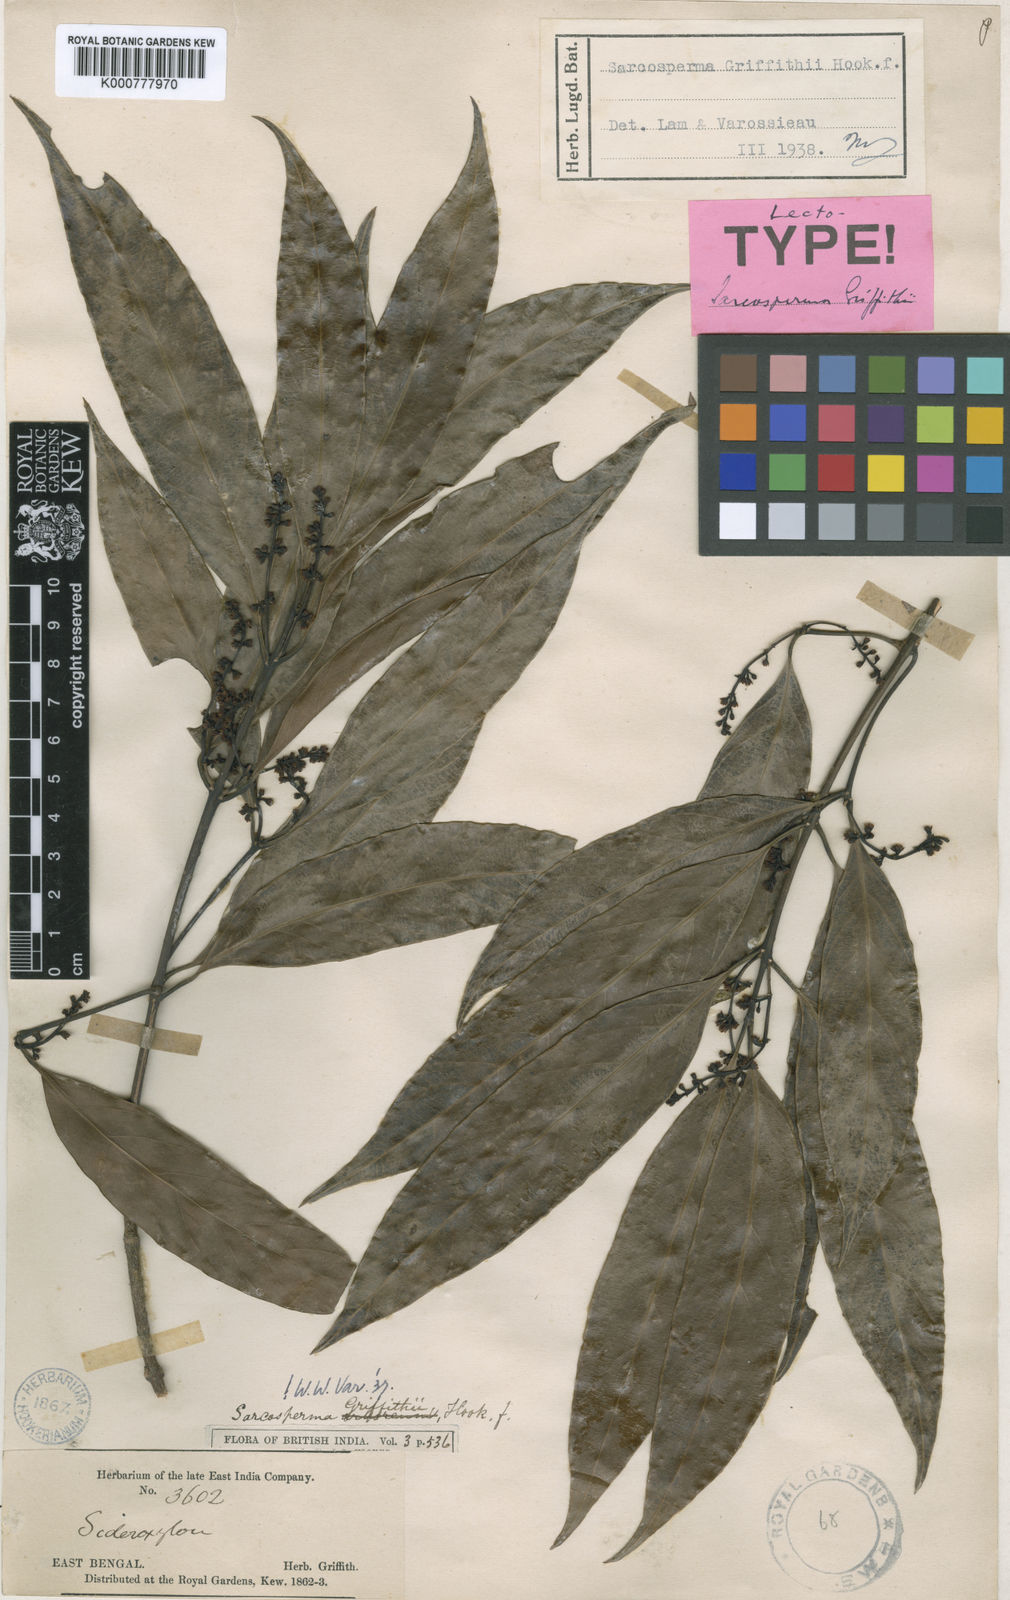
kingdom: Plantae
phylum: Tracheophyta
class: Magnoliopsida
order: Ericales
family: Sapotaceae
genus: Sarcosperma
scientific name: Sarcosperma
